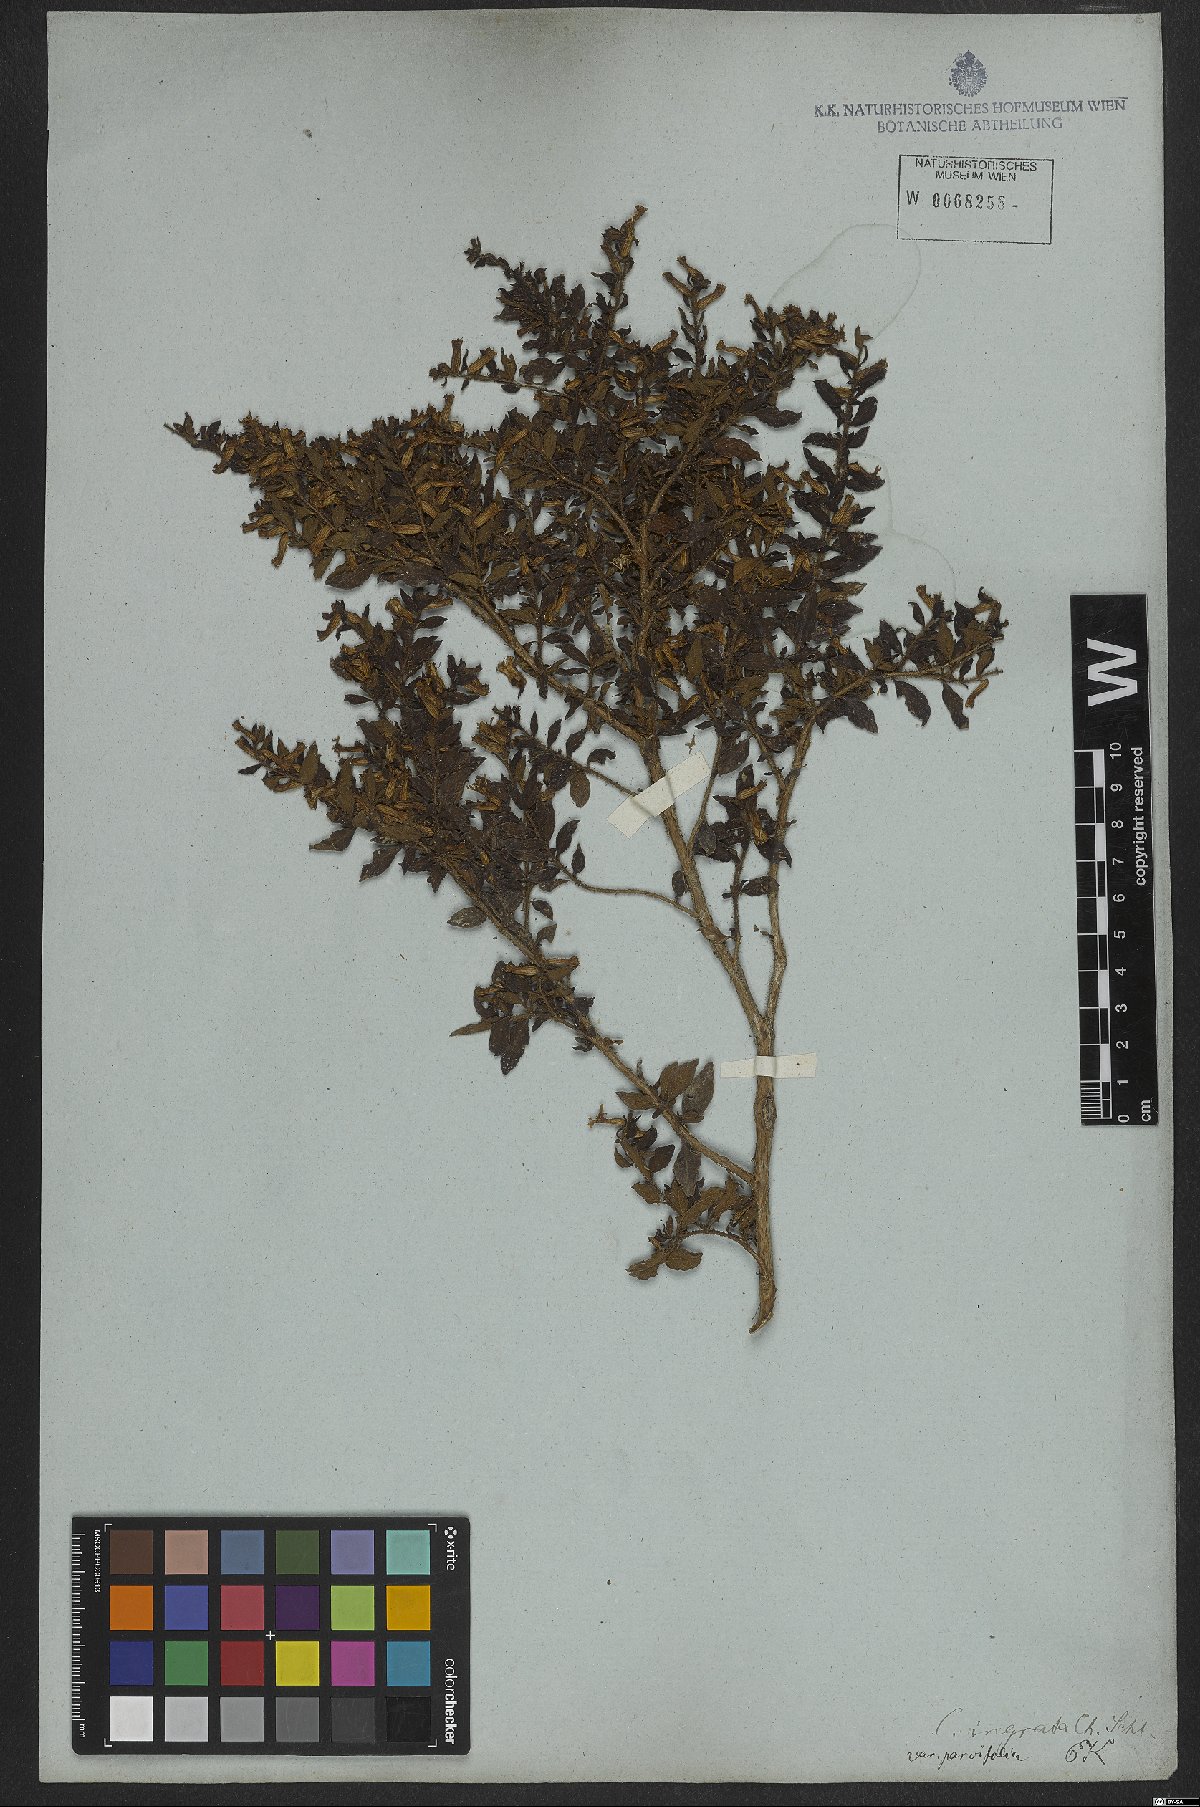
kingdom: Plantae
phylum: Tracheophyta
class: Magnoliopsida
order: Myrtales
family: Lythraceae
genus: Cuphea
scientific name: Cuphea ingrata
